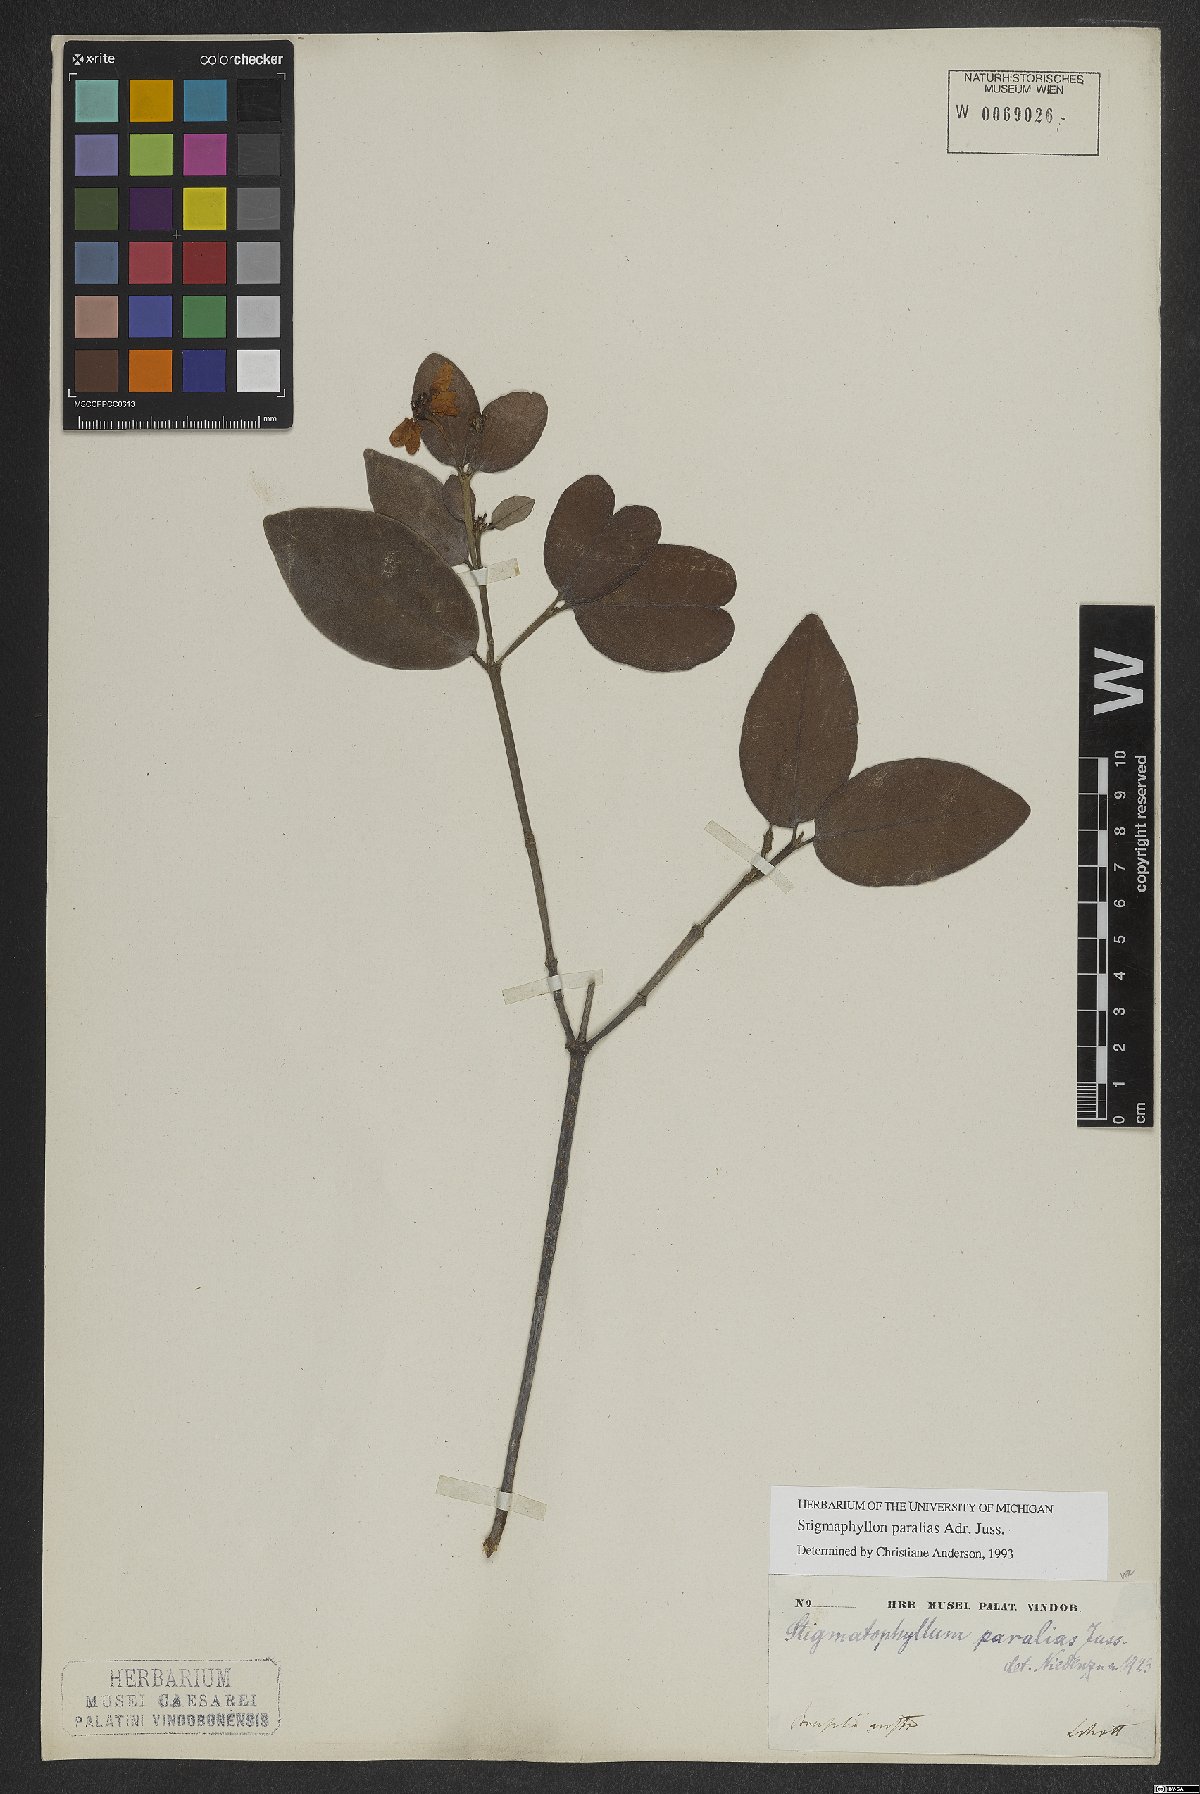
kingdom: Plantae
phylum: Tracheophyta
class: Magnoliopsida
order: Malpighiales
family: Malpighiaceae
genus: Stigmaphyllon
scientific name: Stigmaphyllon paralias
